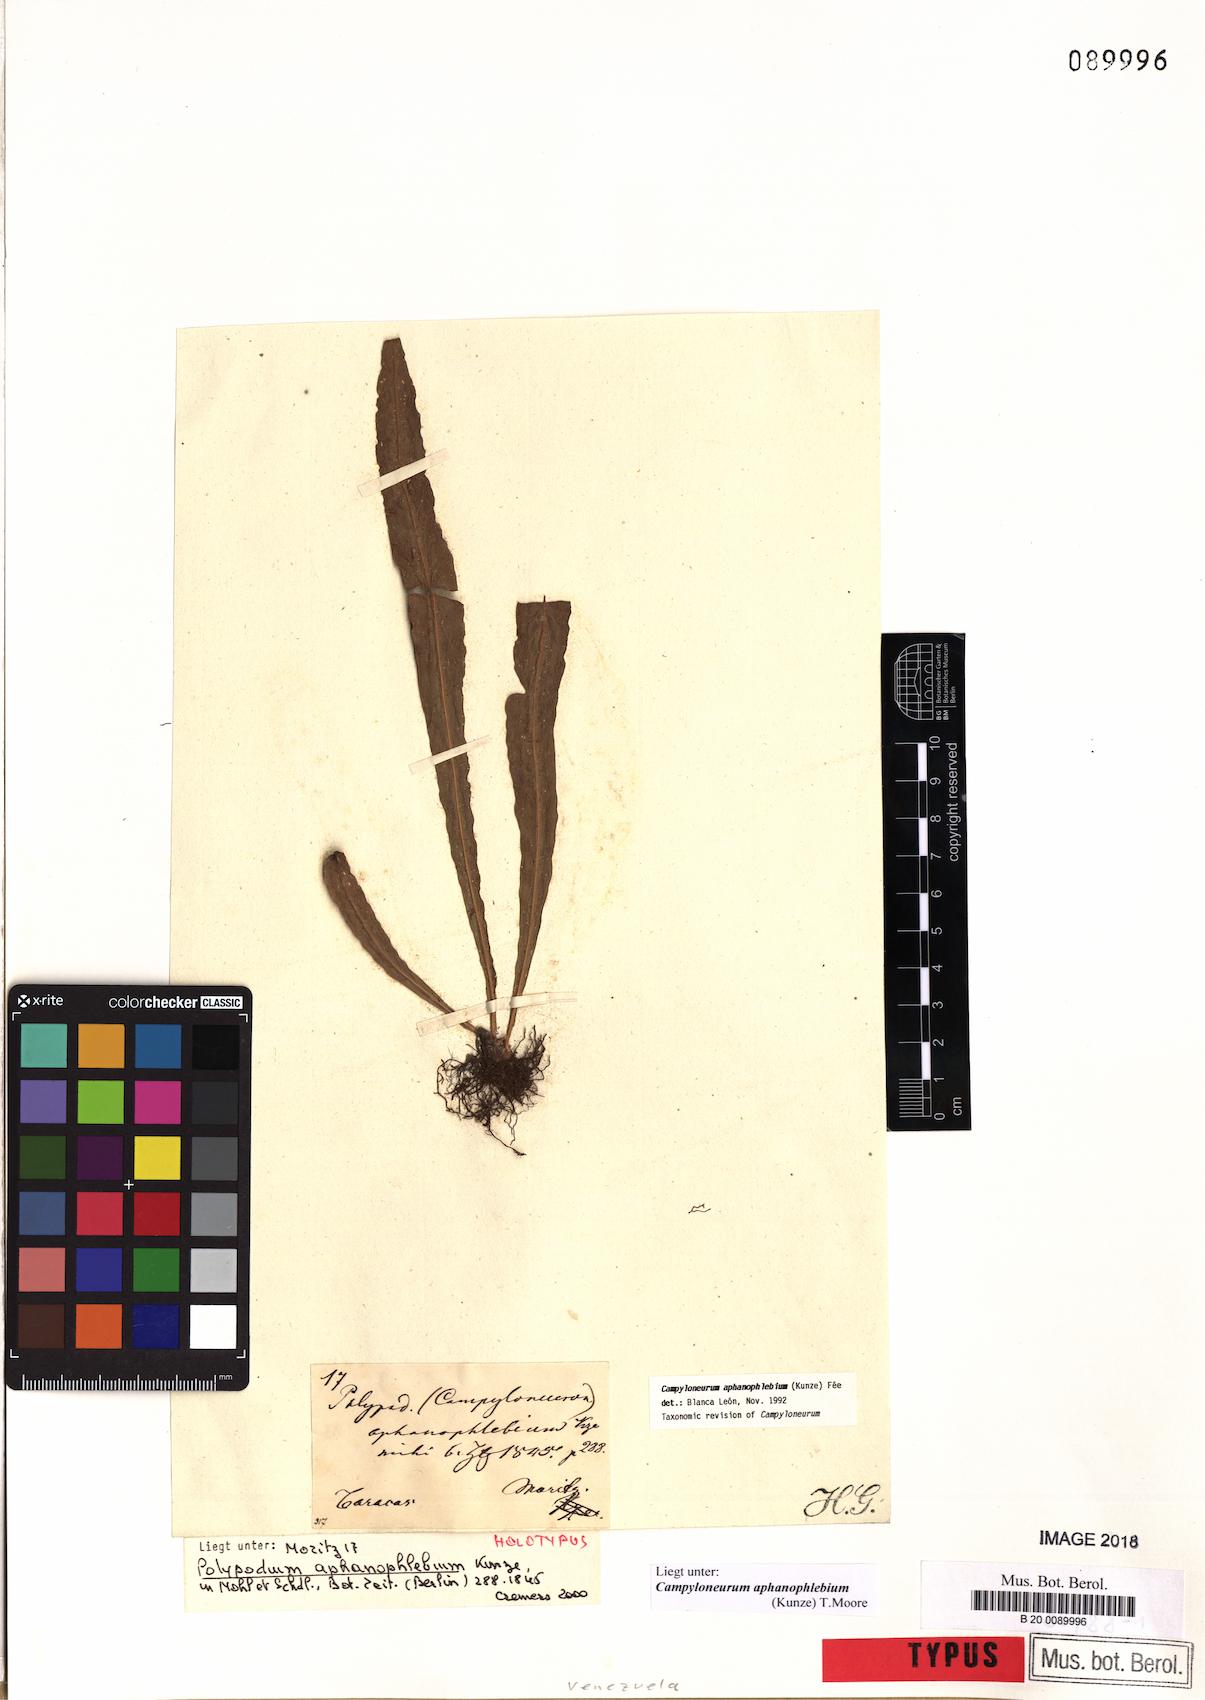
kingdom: Plantae
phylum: Tracheophyta
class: Polypodiopsida
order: Polypodiales
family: Polypodiaceae
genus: Campyloneurum
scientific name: Campyloneurum aphanophlebium
